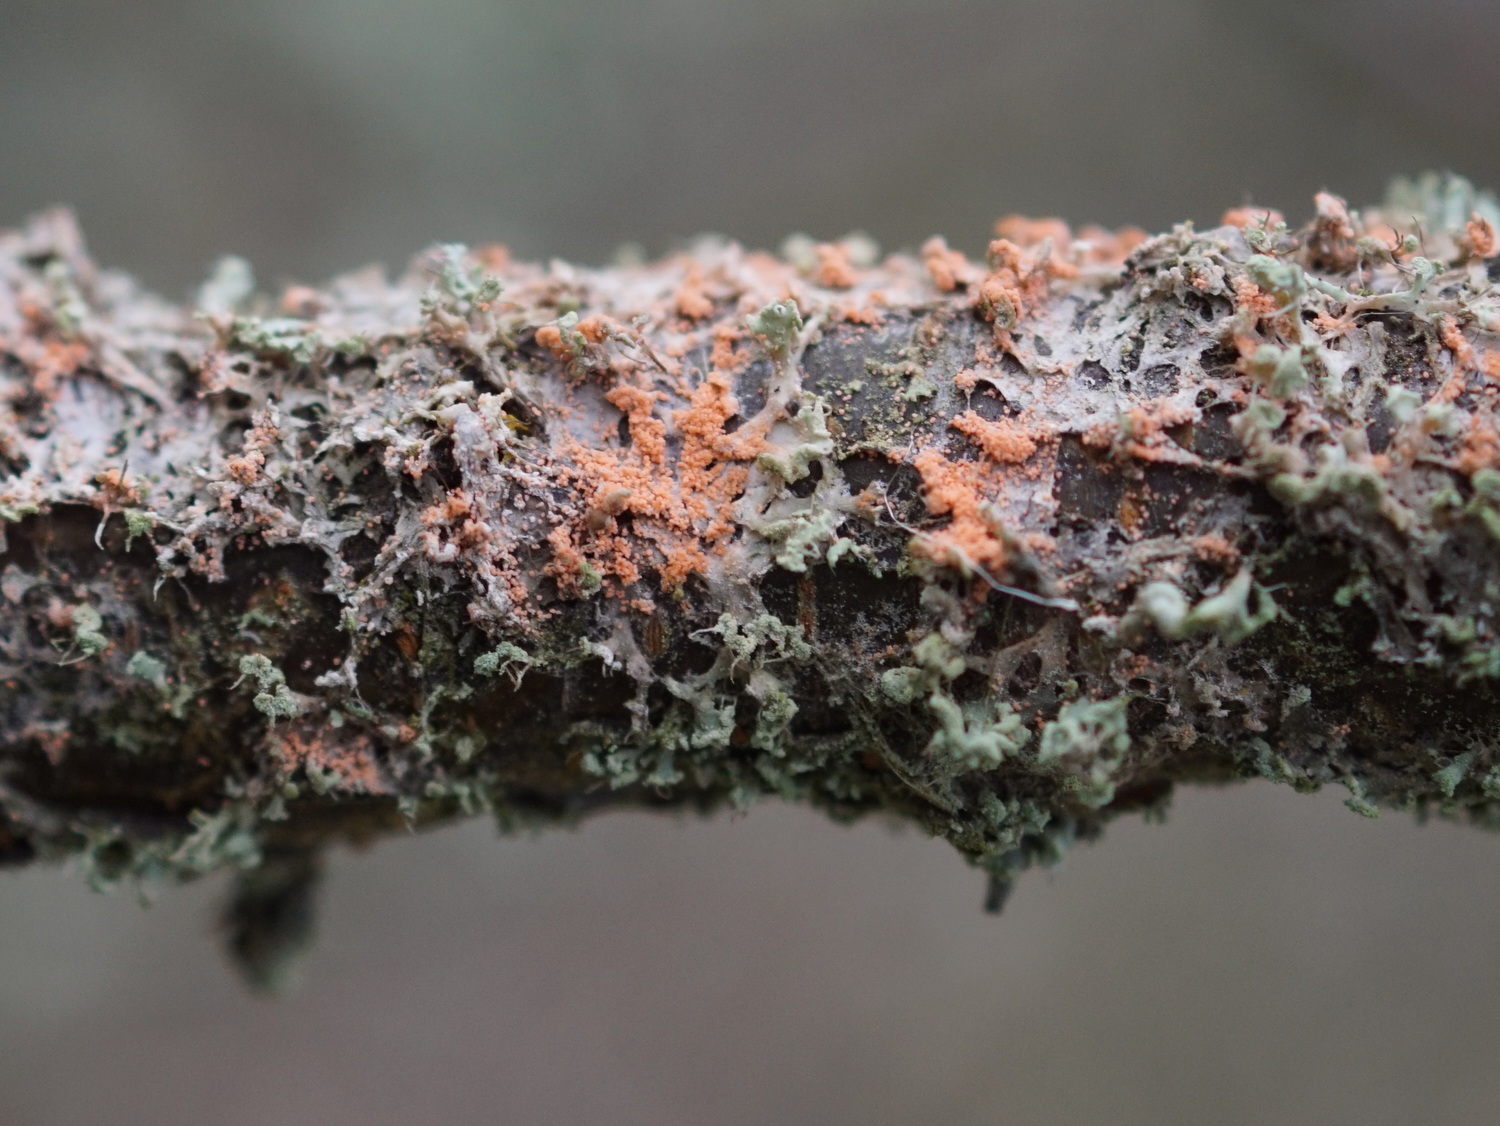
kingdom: Fungi
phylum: Basidiomycota
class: Agaricomycetes
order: Corticiales
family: Corticiaceae
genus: Erythricium
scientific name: Erythricium aurantiacum
